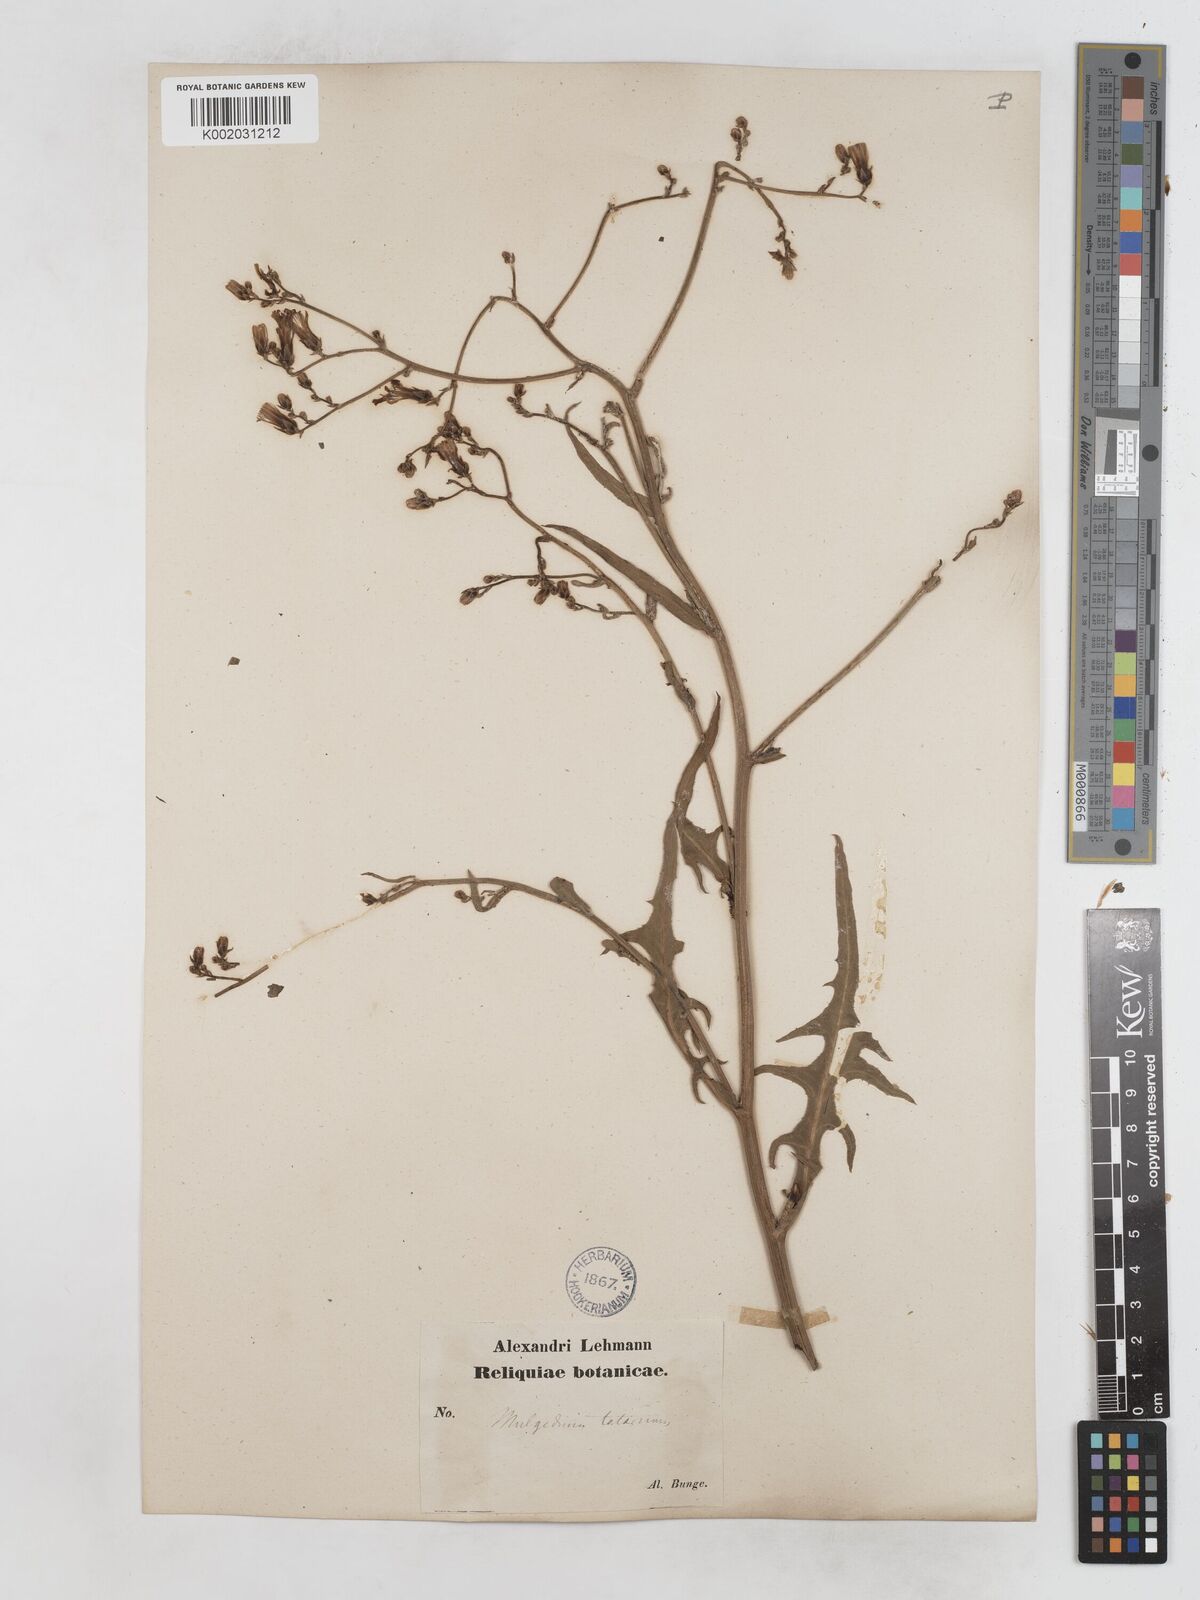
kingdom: Plantae
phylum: Tracheophyta
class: Magnoliopsida
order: Asterales
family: Asteraceae
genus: Lactuca
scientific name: Lactuca tatarica
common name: Blue lettuce
